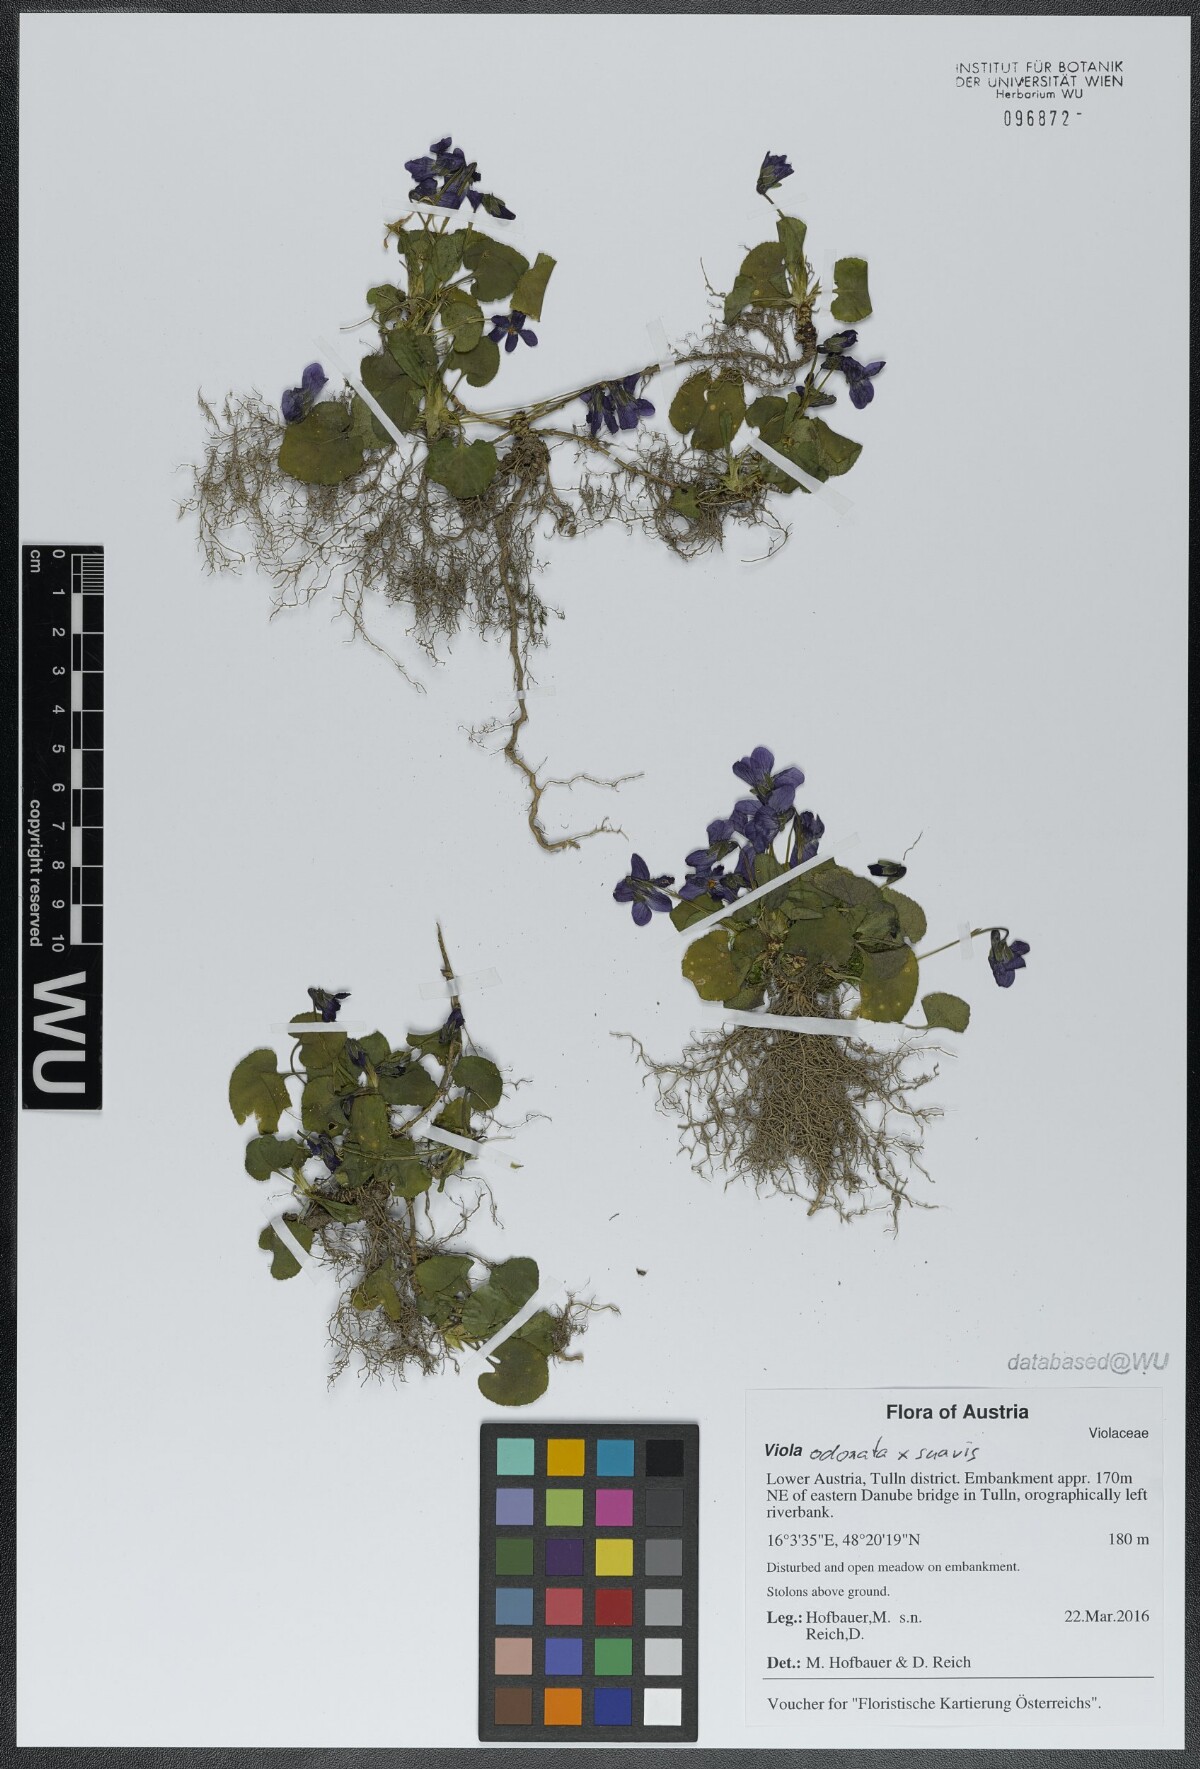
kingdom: Plantae
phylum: Tracheophyta
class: Magnoliopsida
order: Malpighiales
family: Violaceae
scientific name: Violaceae
